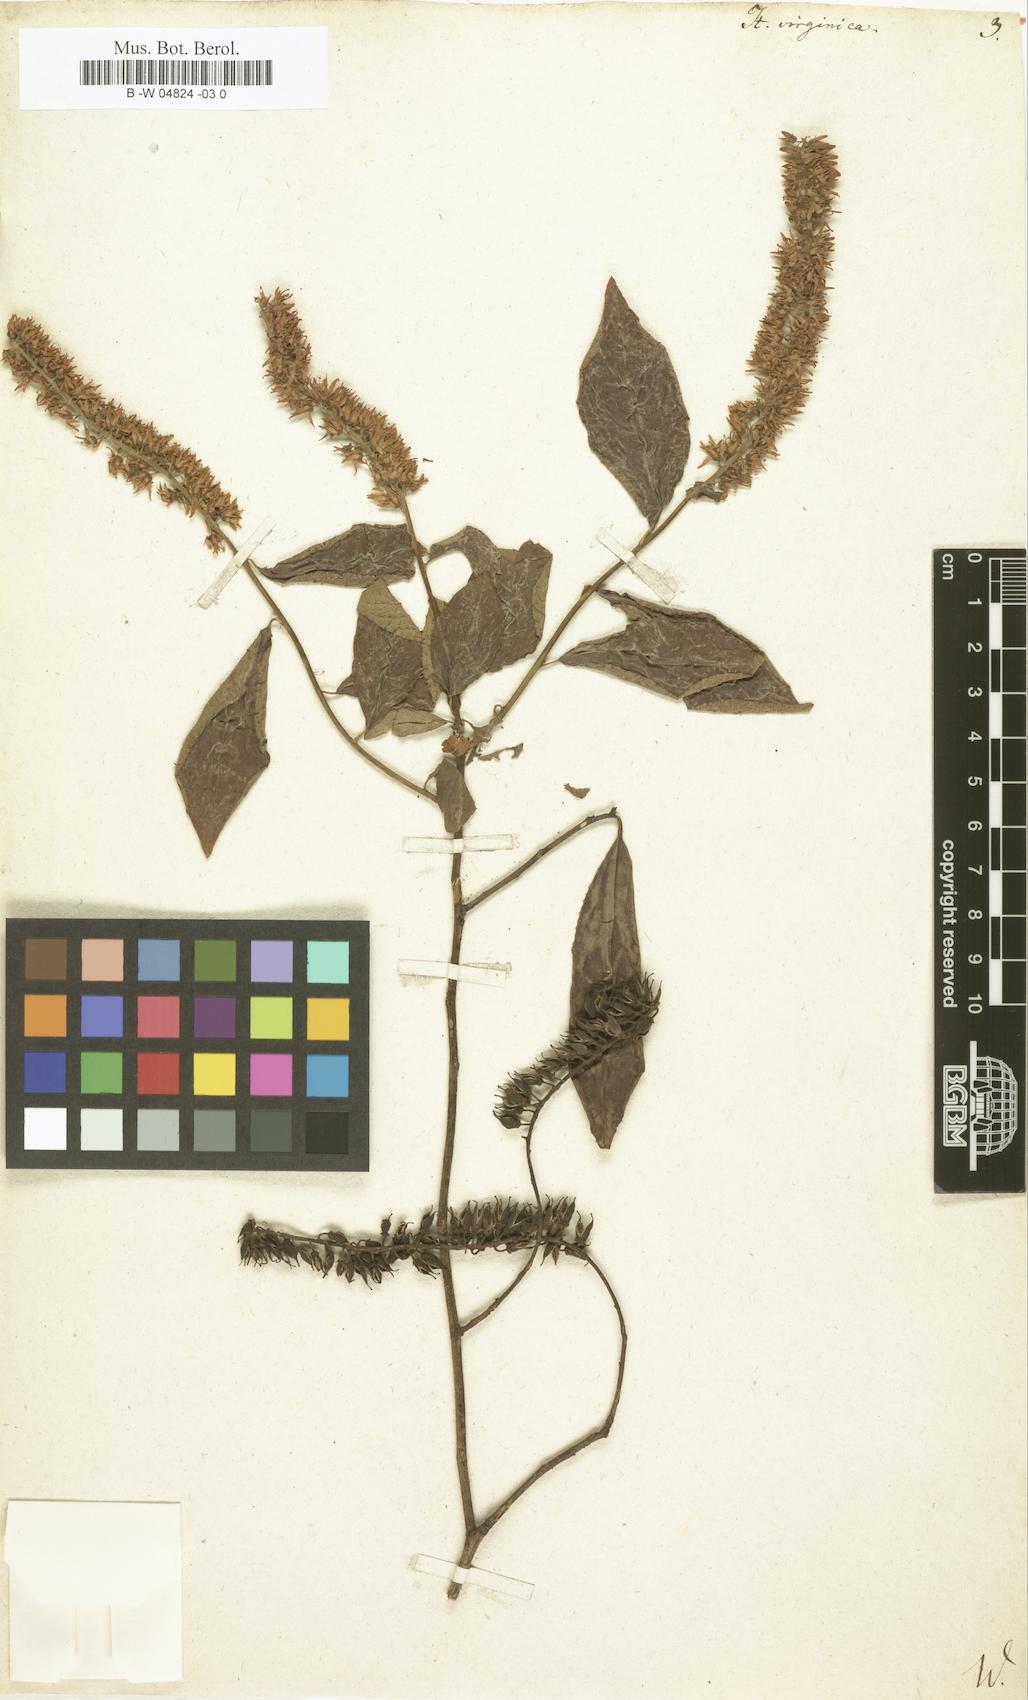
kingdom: Plantae
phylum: Tracheophyta
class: Magnoliopsida
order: Saxifragales
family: Iteaceae
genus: Itea
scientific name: Itea virginica
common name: Sweetspire
